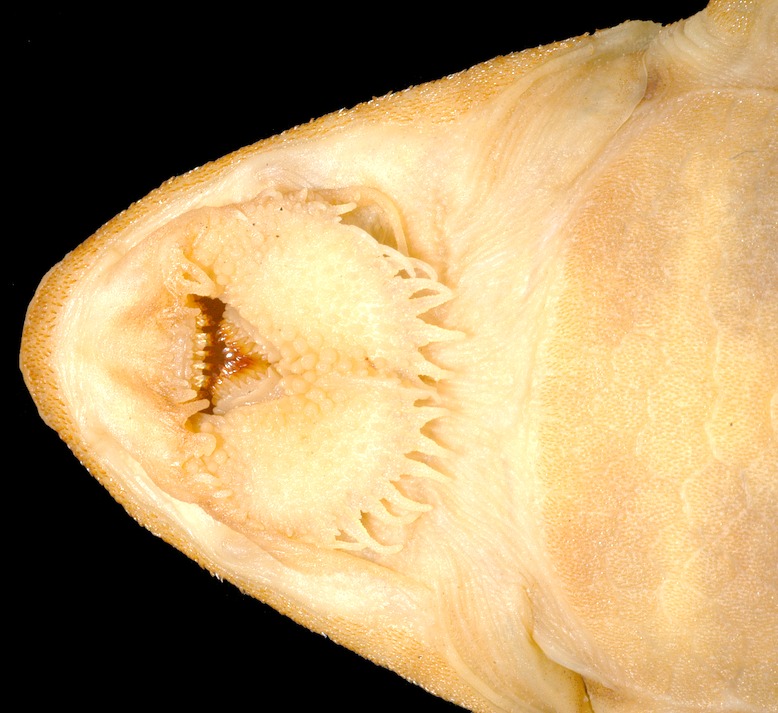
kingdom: Animalia
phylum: Chordata
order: Siluriformes
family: Loricariidae
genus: Rineloricaria
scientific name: Rineloricaria hasemani
